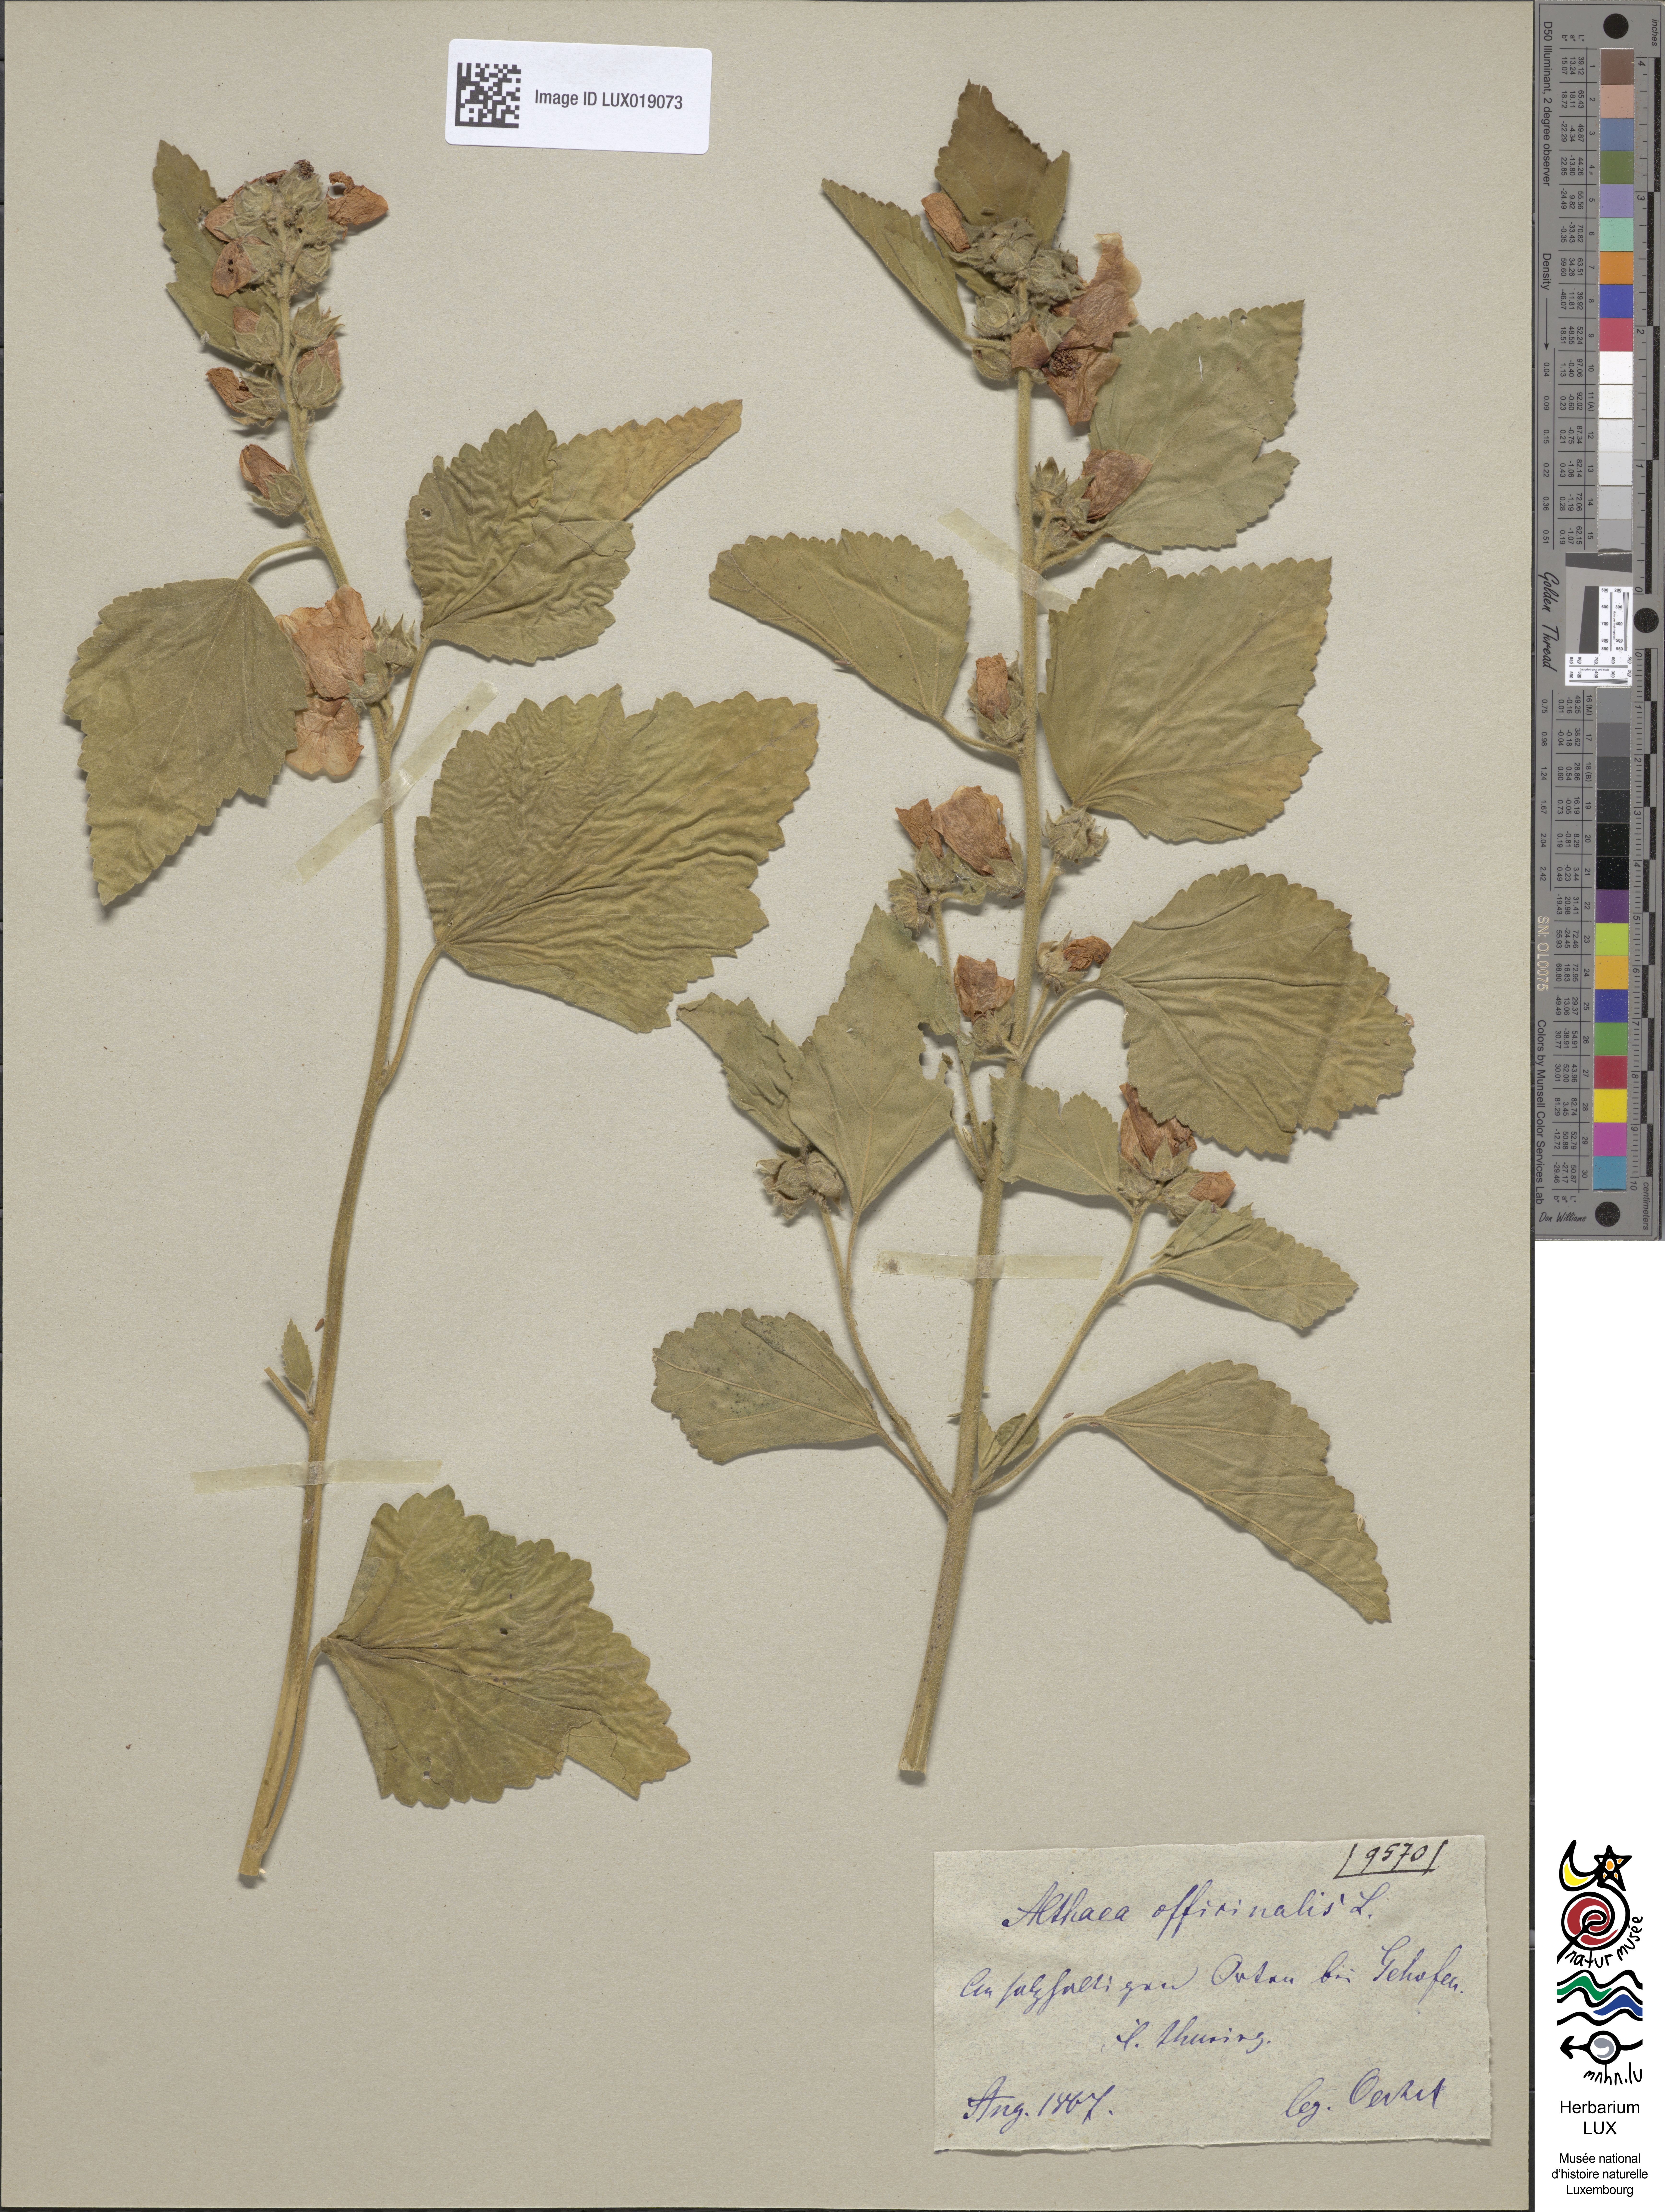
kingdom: Plantae
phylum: Tracheophyta
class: Magnoliopsida
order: Malvales
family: Malvaceae
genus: Althaea
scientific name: Althaea officinalis
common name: Marsh-mallow
